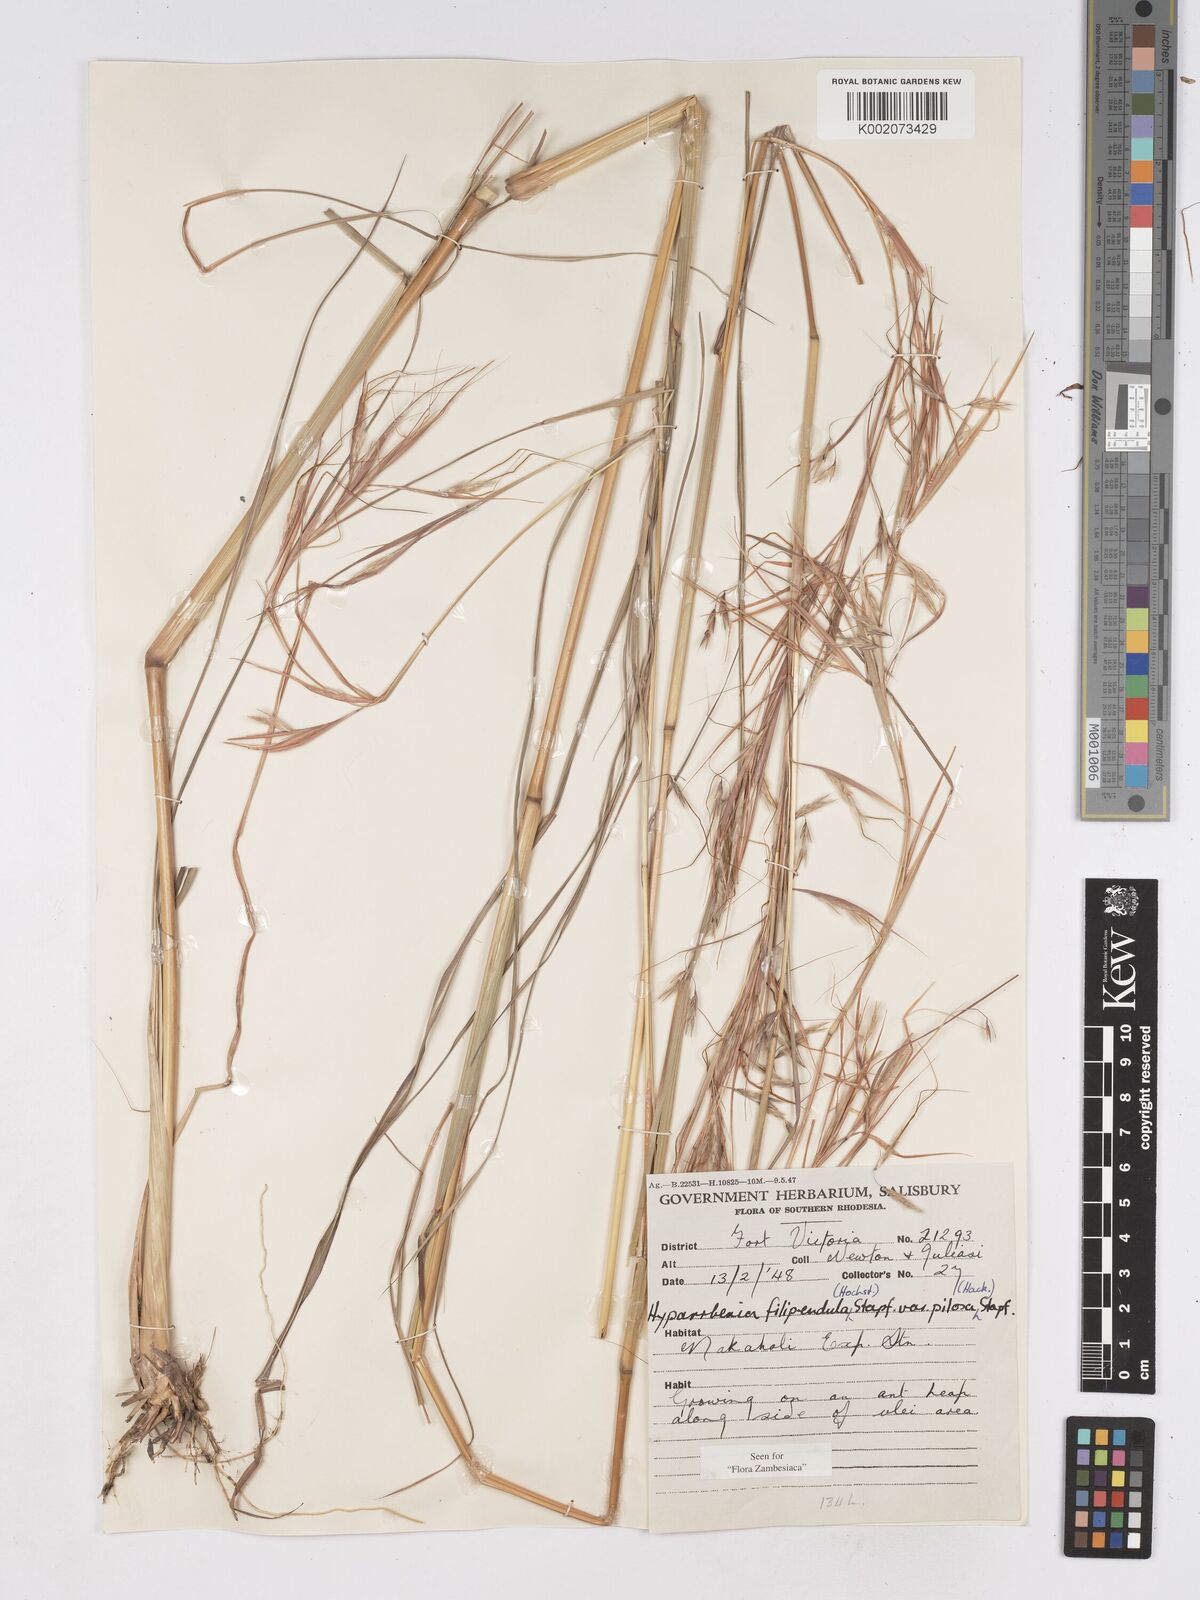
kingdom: Plantae
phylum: Tracheophyta
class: Liliopsida
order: Poales
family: Poaceae
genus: Hyparrhenia
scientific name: Hyparrhenia filipendula
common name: Tambookie grass
